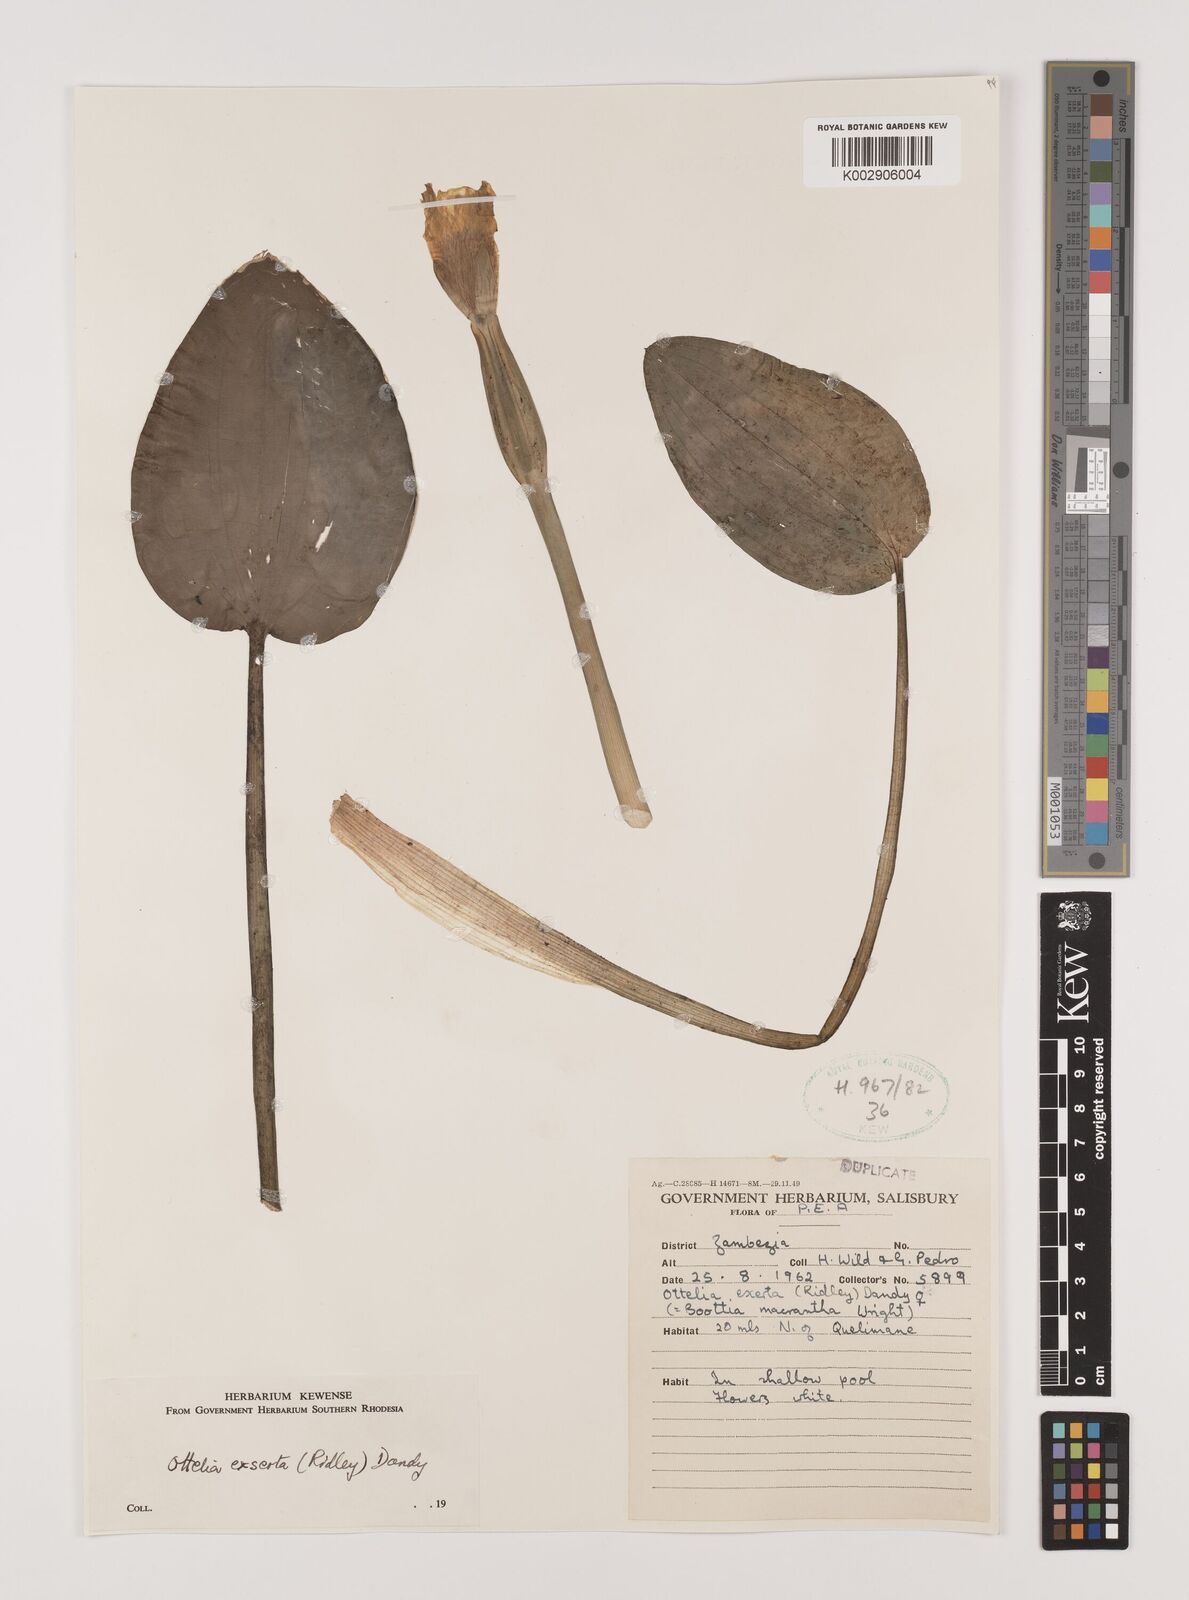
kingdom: Plantae
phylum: Tracheophyta
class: Liliopsida
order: Alismatales
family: Hydrocharitaceae
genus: Ottelia
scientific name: Ottelia exserta
